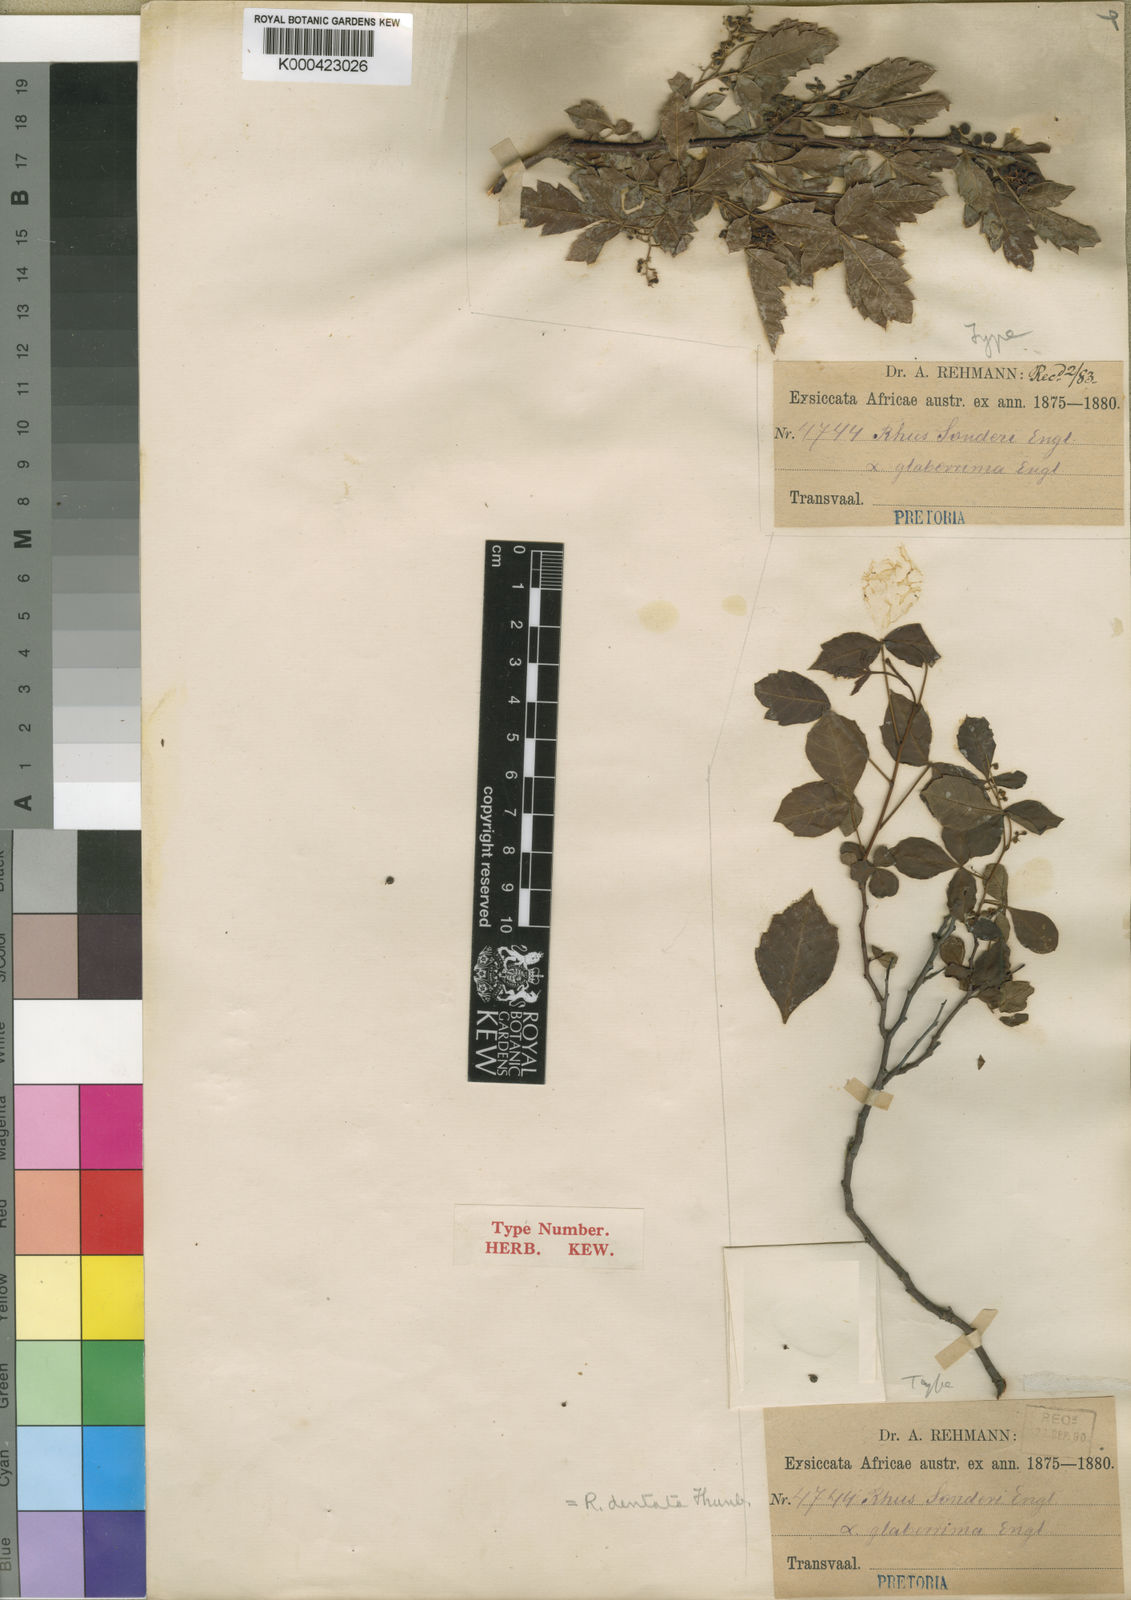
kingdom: Plantae
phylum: Tracheophyta
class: Magnoliopsida
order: Sapindales
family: Anacardiaceae
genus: Searsia
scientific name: Searsia dentata
